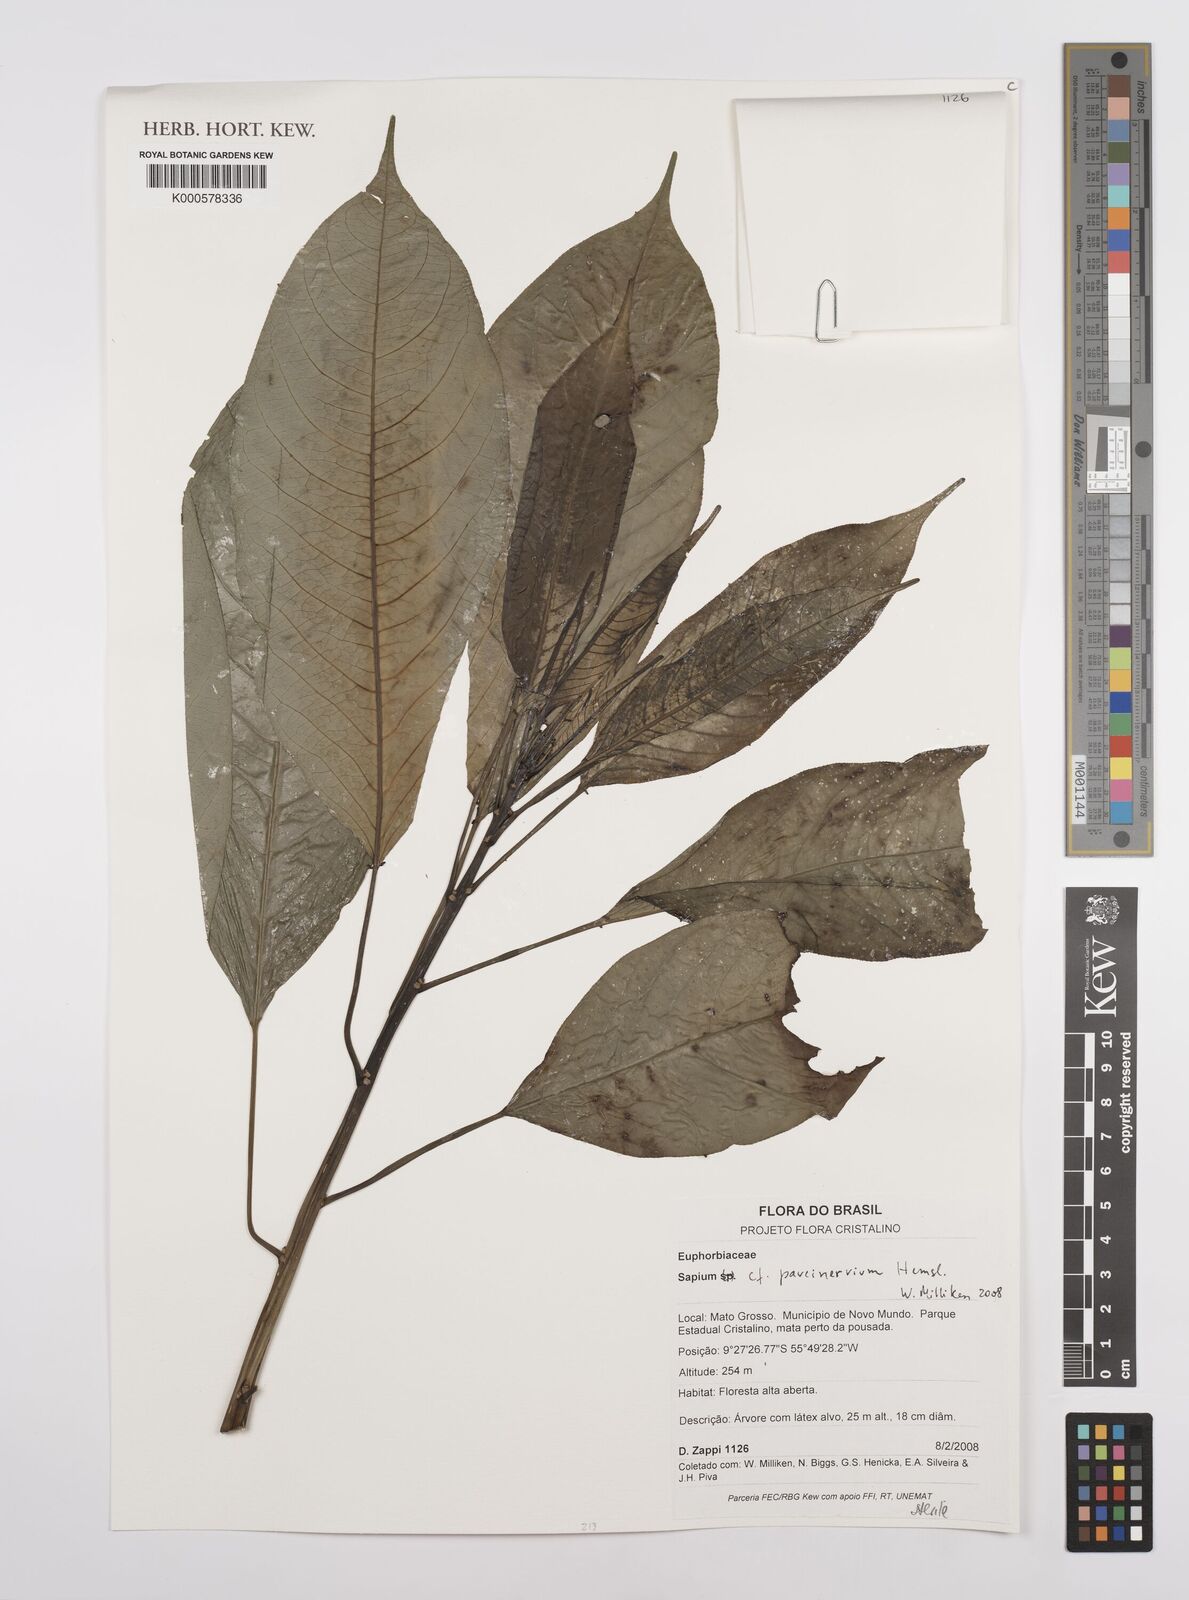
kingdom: Plantae
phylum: Tracheophyta
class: Magnoliopsida
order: Malpighiales
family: Euphorbiaceae
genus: Sapium
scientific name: Sapium paucinervium
